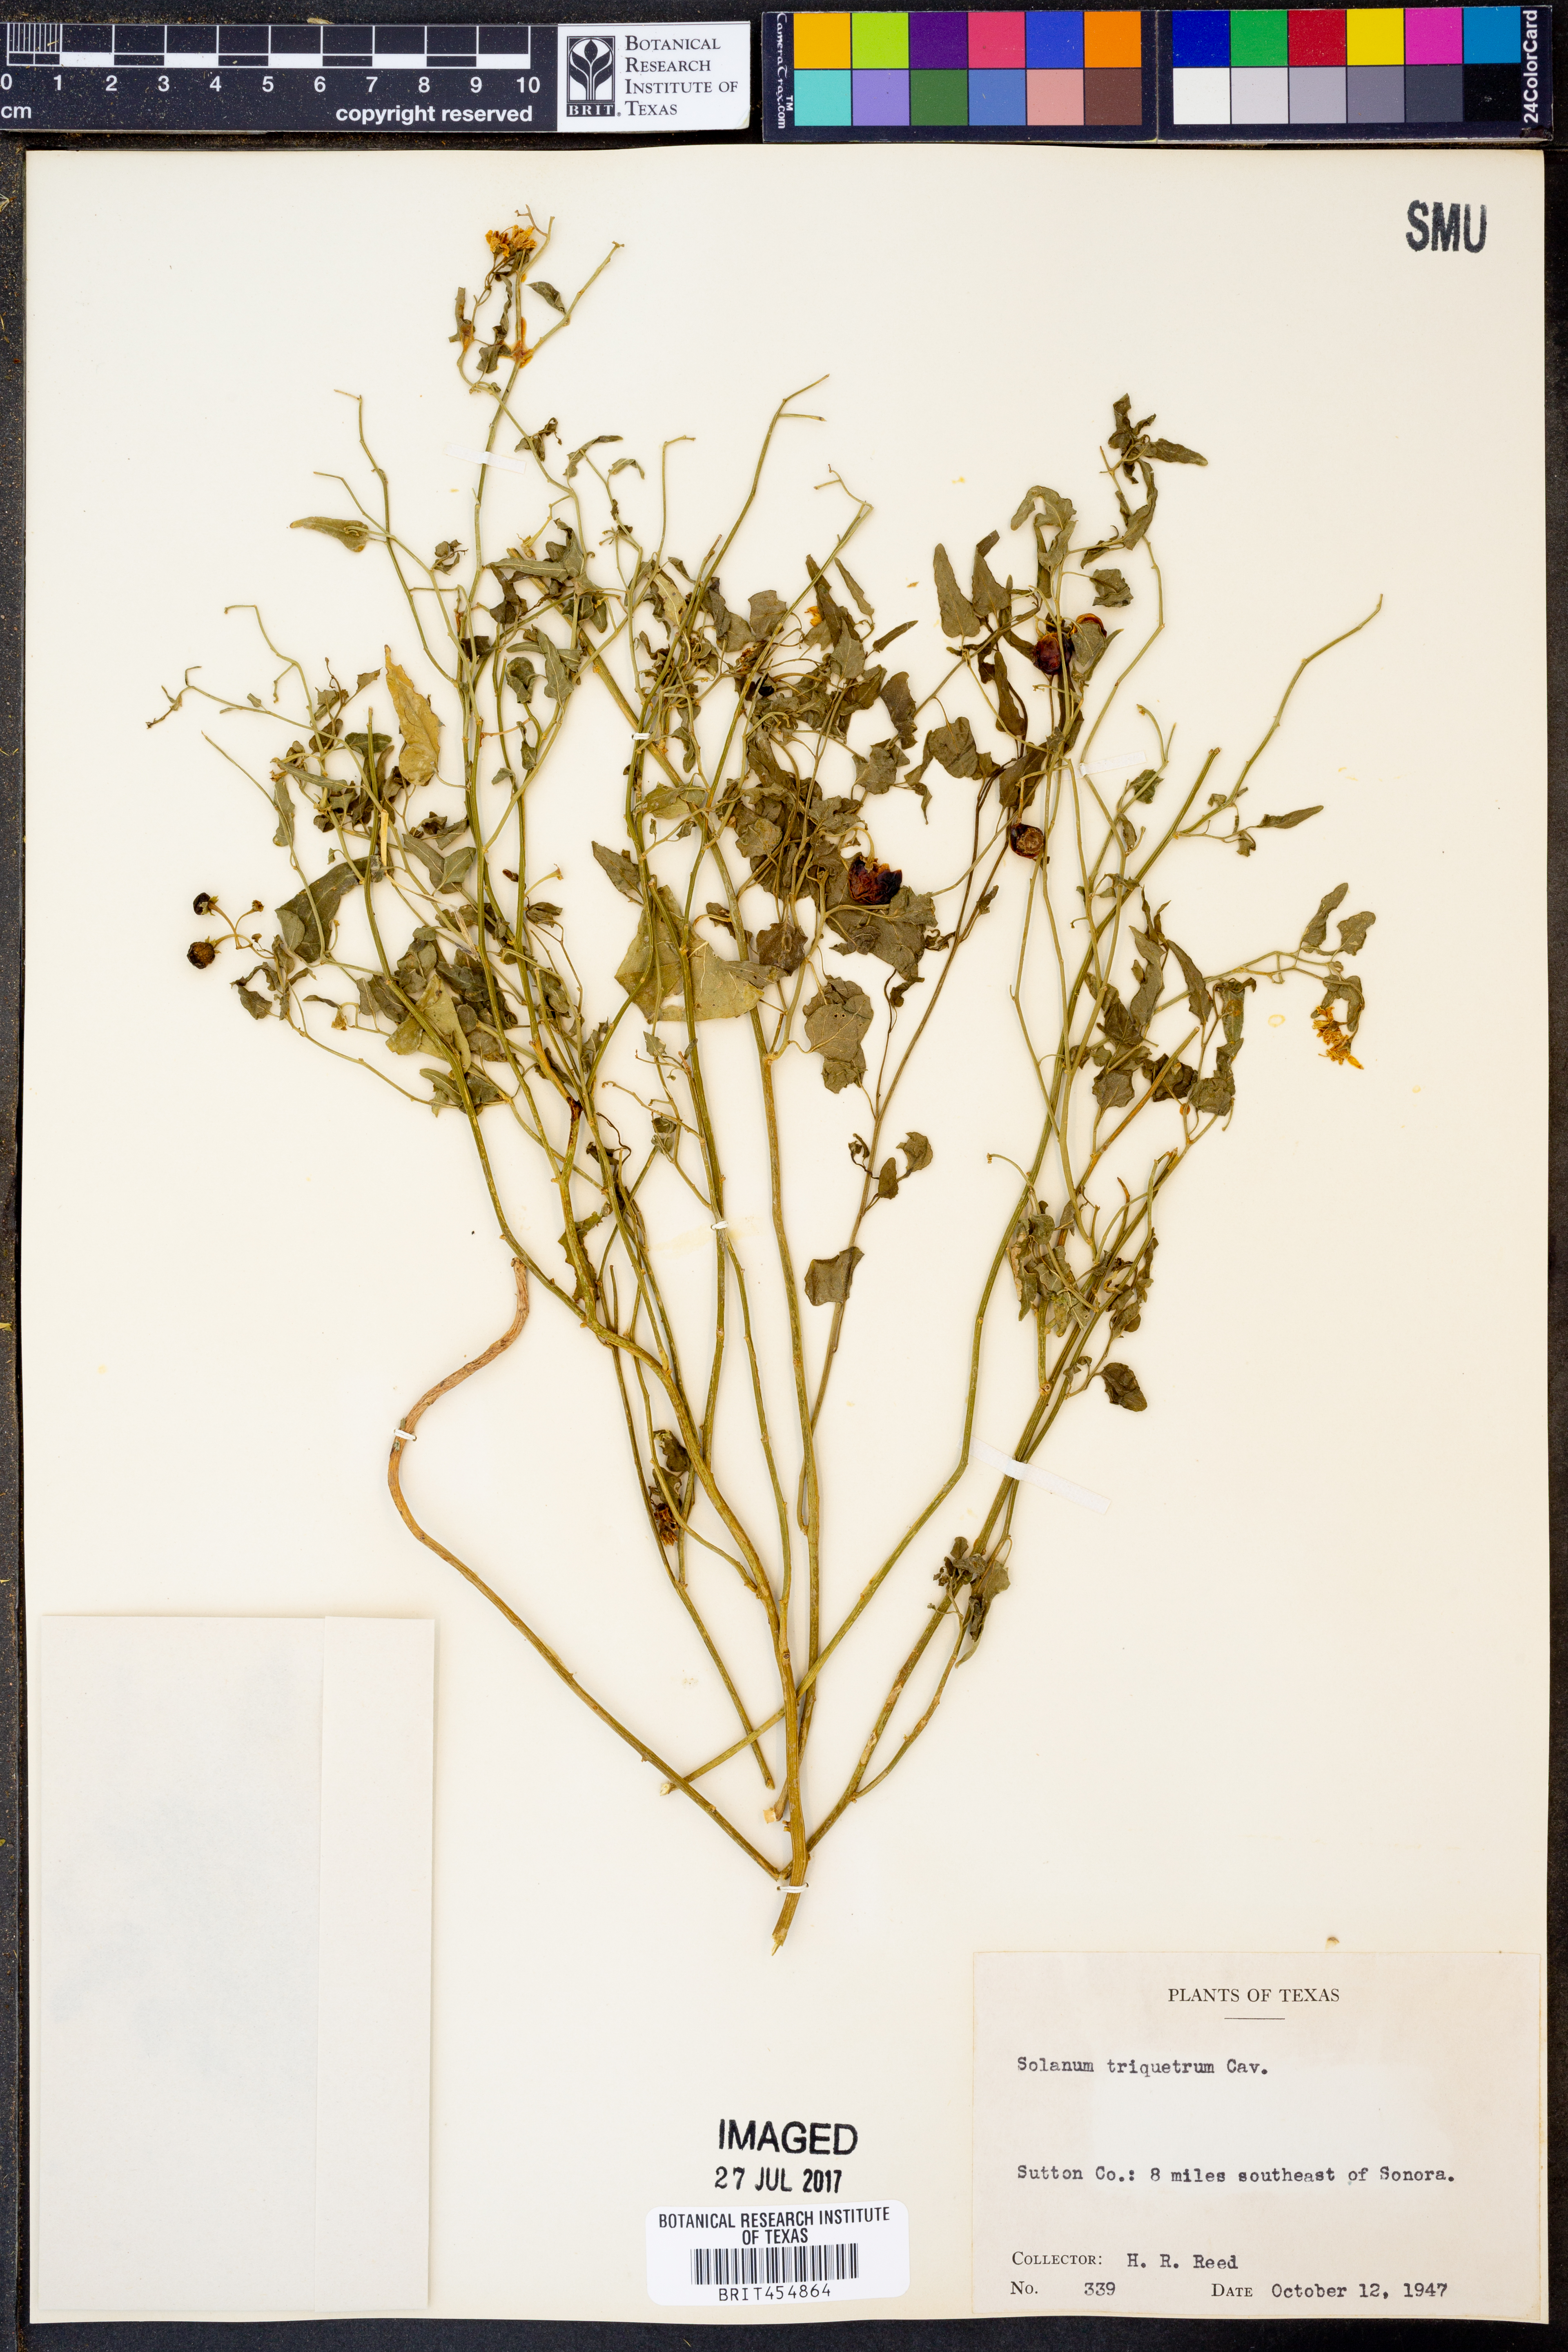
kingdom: Plantae
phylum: Tracheophyta
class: Magnoliopsida
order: Solanales
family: Solanaceae
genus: Solanum
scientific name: Solanum triquetrum
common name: Texas nightshade
